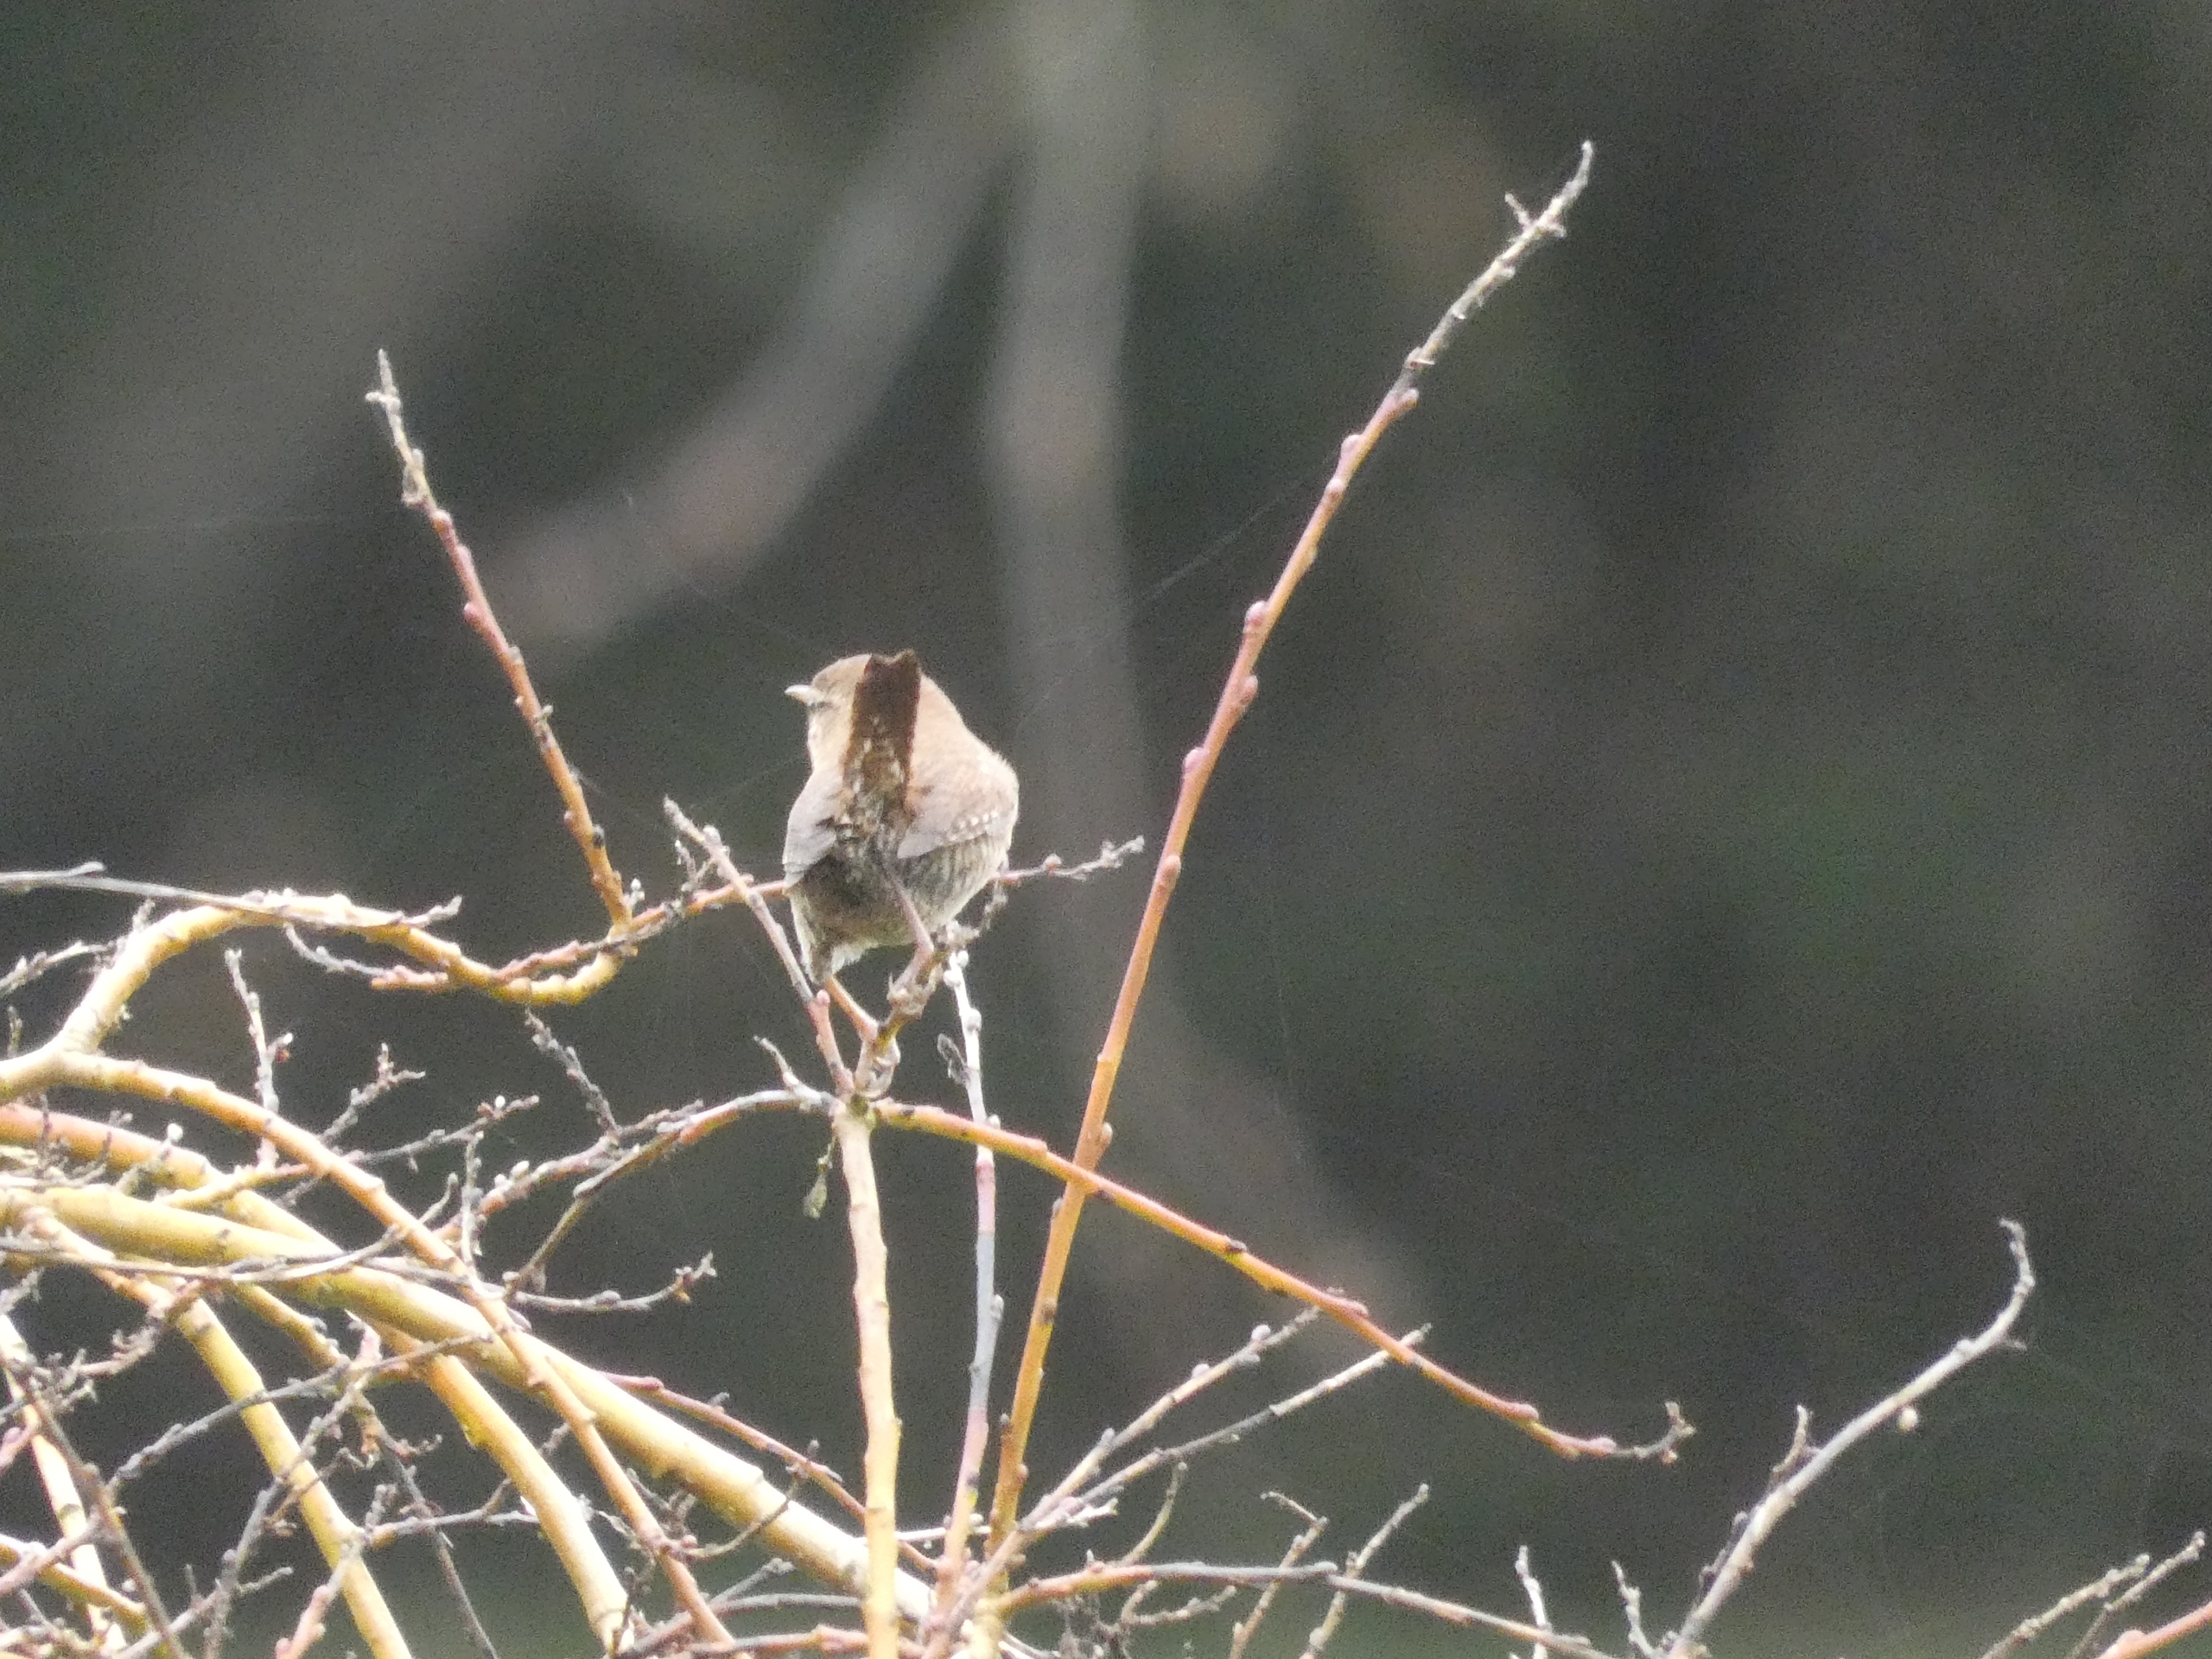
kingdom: Animalia
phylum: Chordata
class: Aves
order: Passeriformes
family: Troglodytidae
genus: Troglodytes
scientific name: Troglodytes troglodytes
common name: Gærdesmutte
